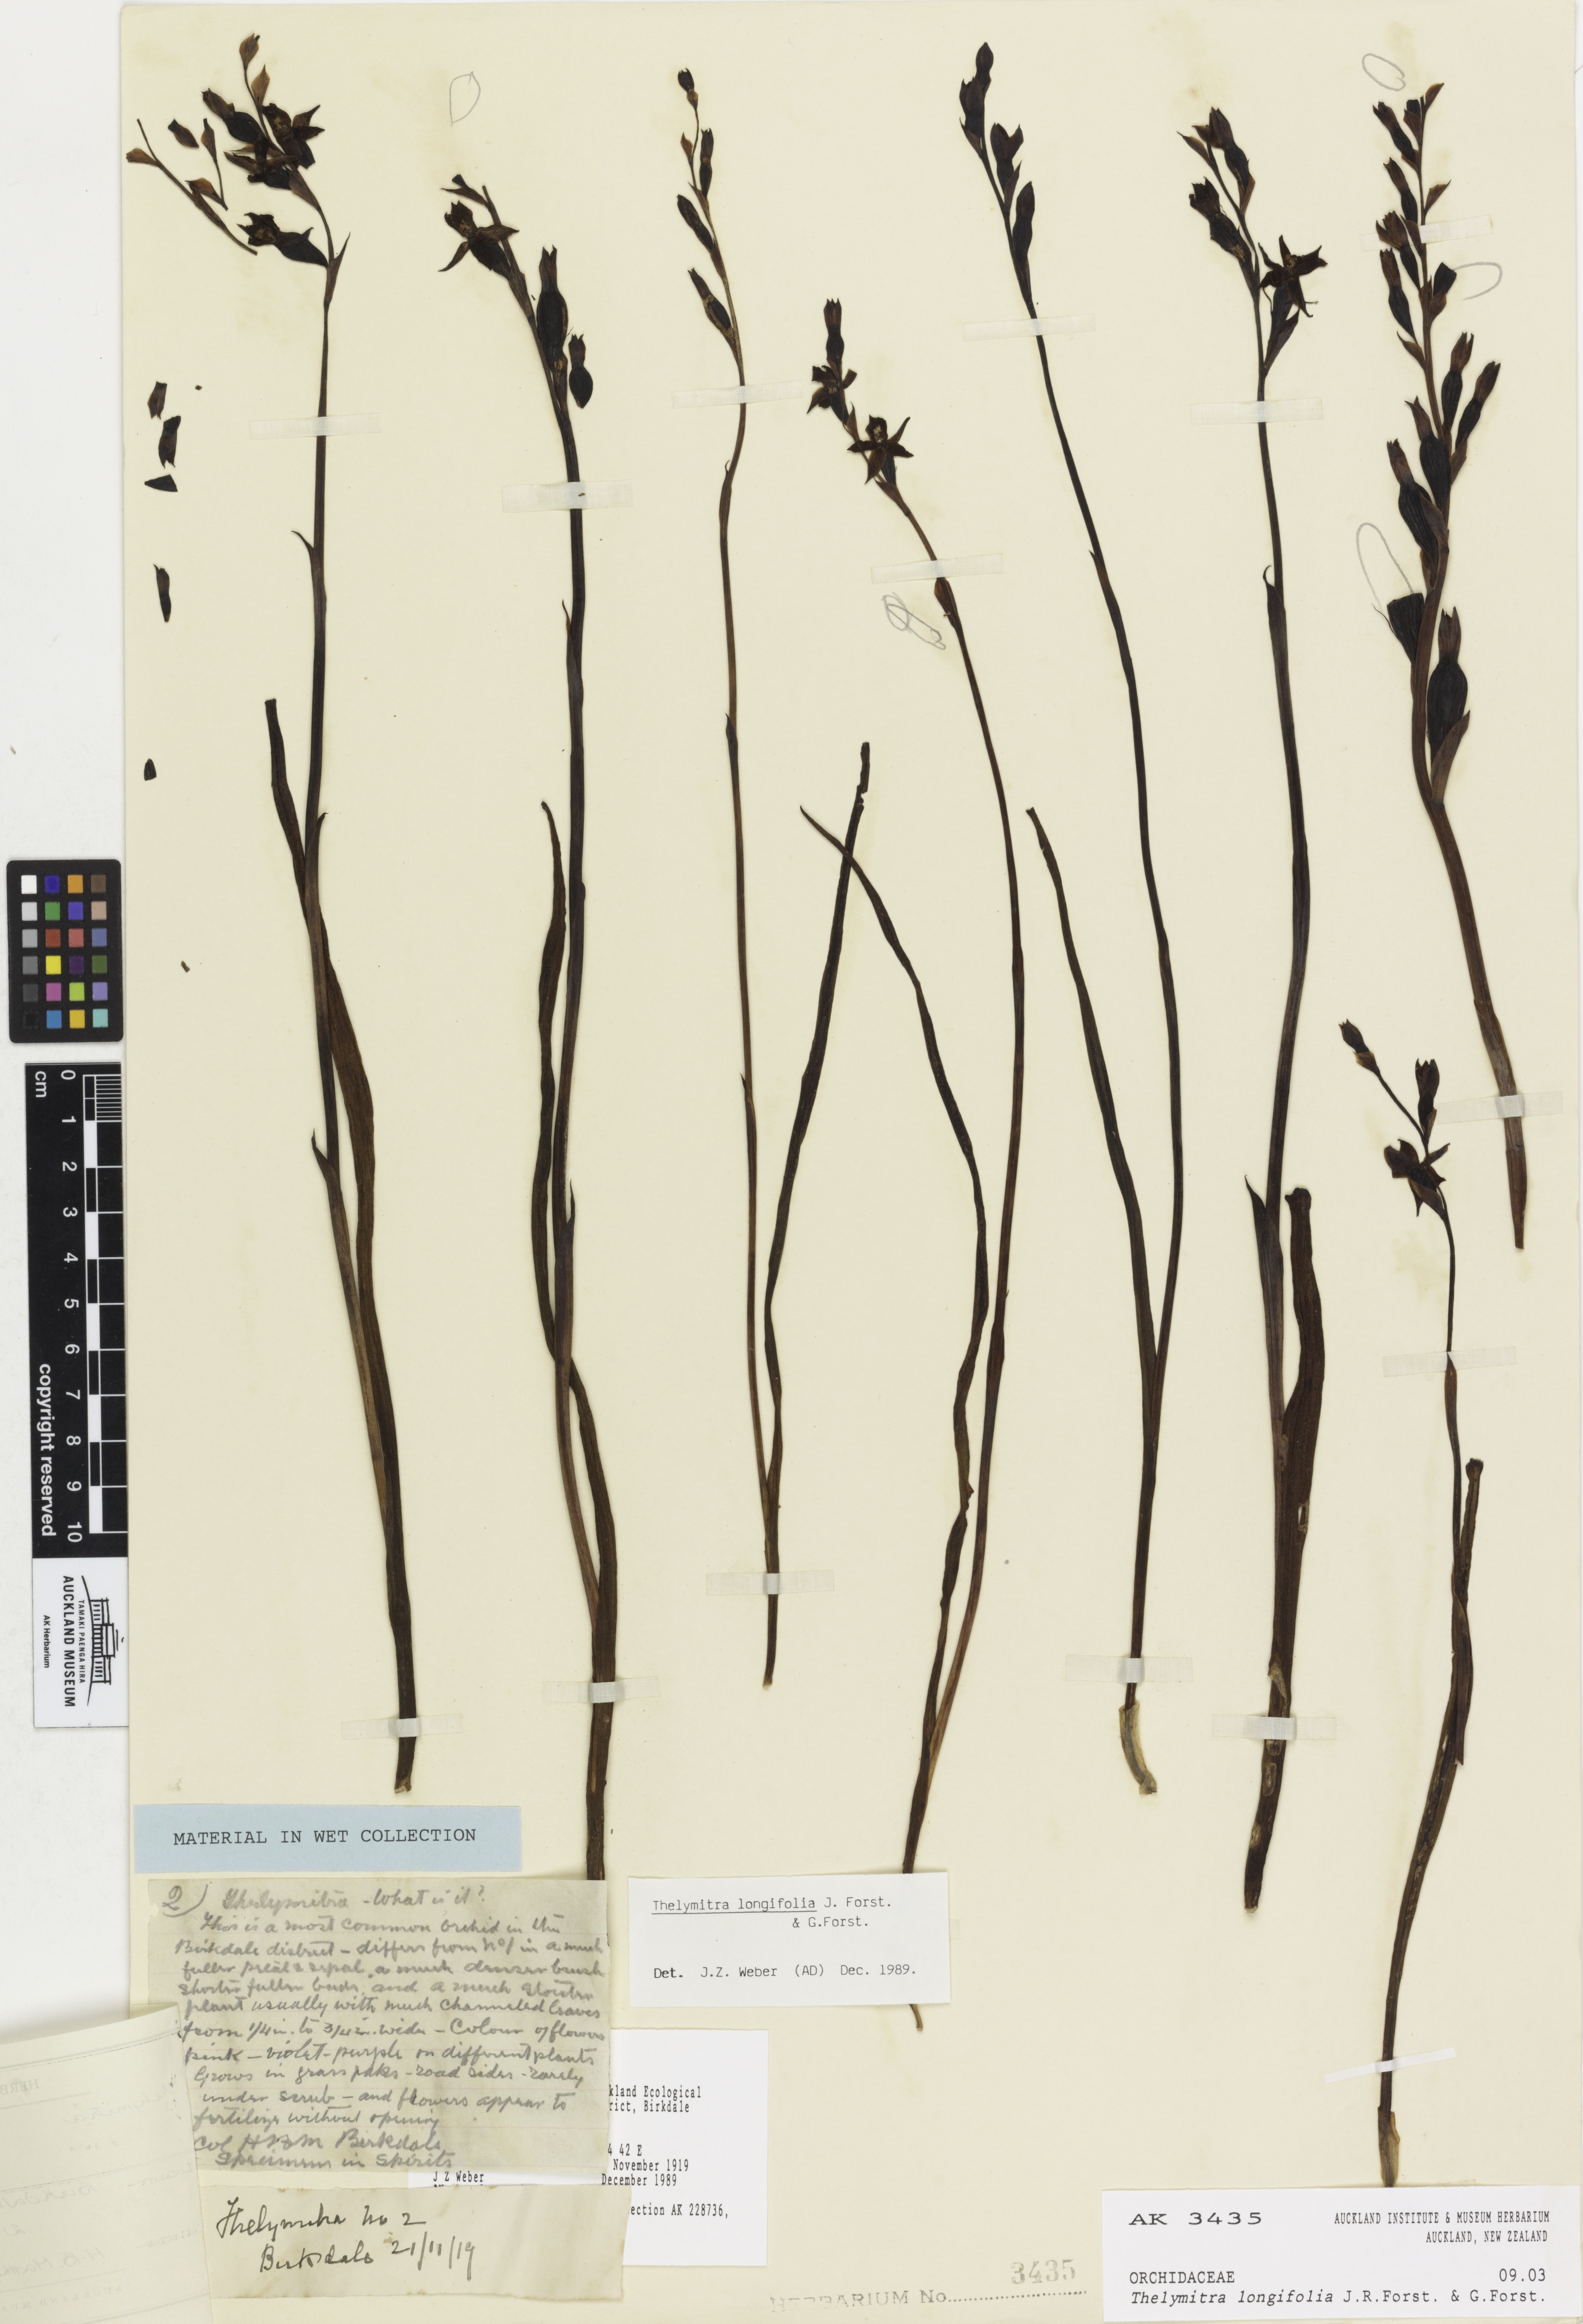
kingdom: Plantae
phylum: Tracheophyta
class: Liliopsida
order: Asparagales
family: Orchidaceae
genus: Thelymitra
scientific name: Thelymitra longifolia
